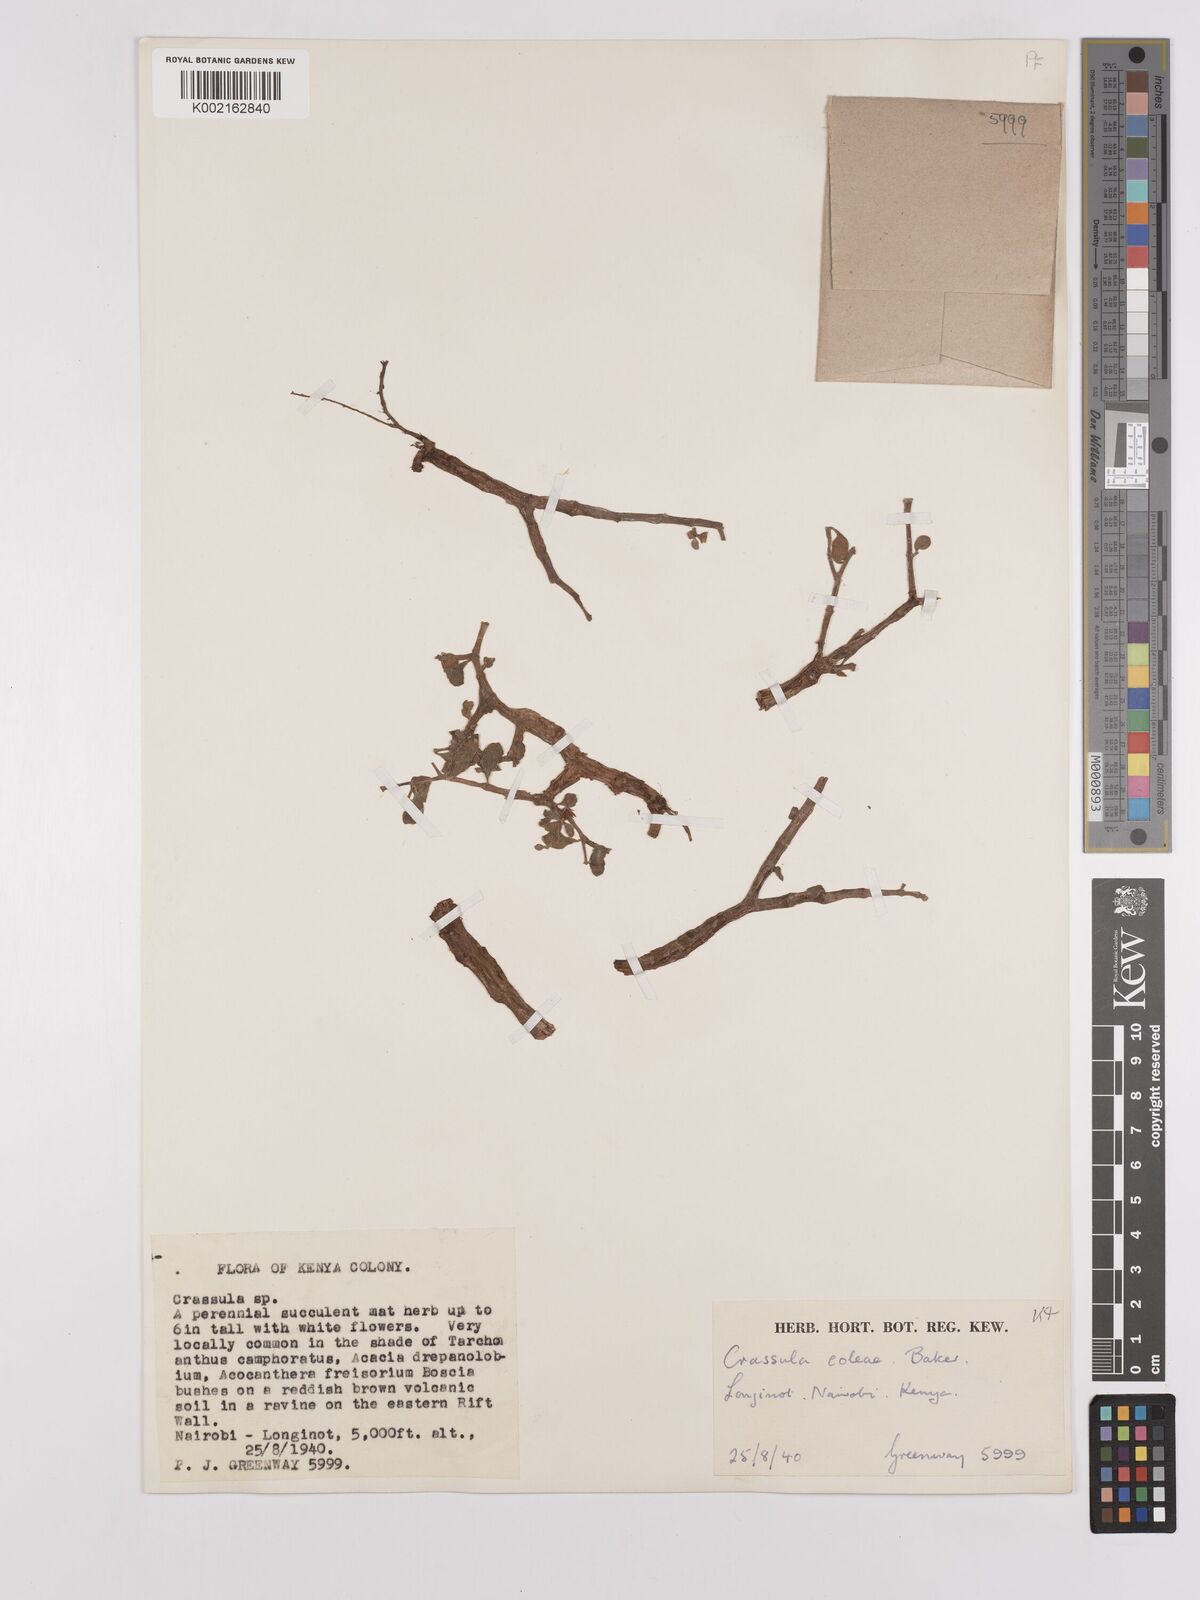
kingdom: Plantae
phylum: Tracheophyta
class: Magnoliopsida
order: Saxifragales
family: Crassulaceae
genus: Crassula
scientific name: Crassula volkensii
